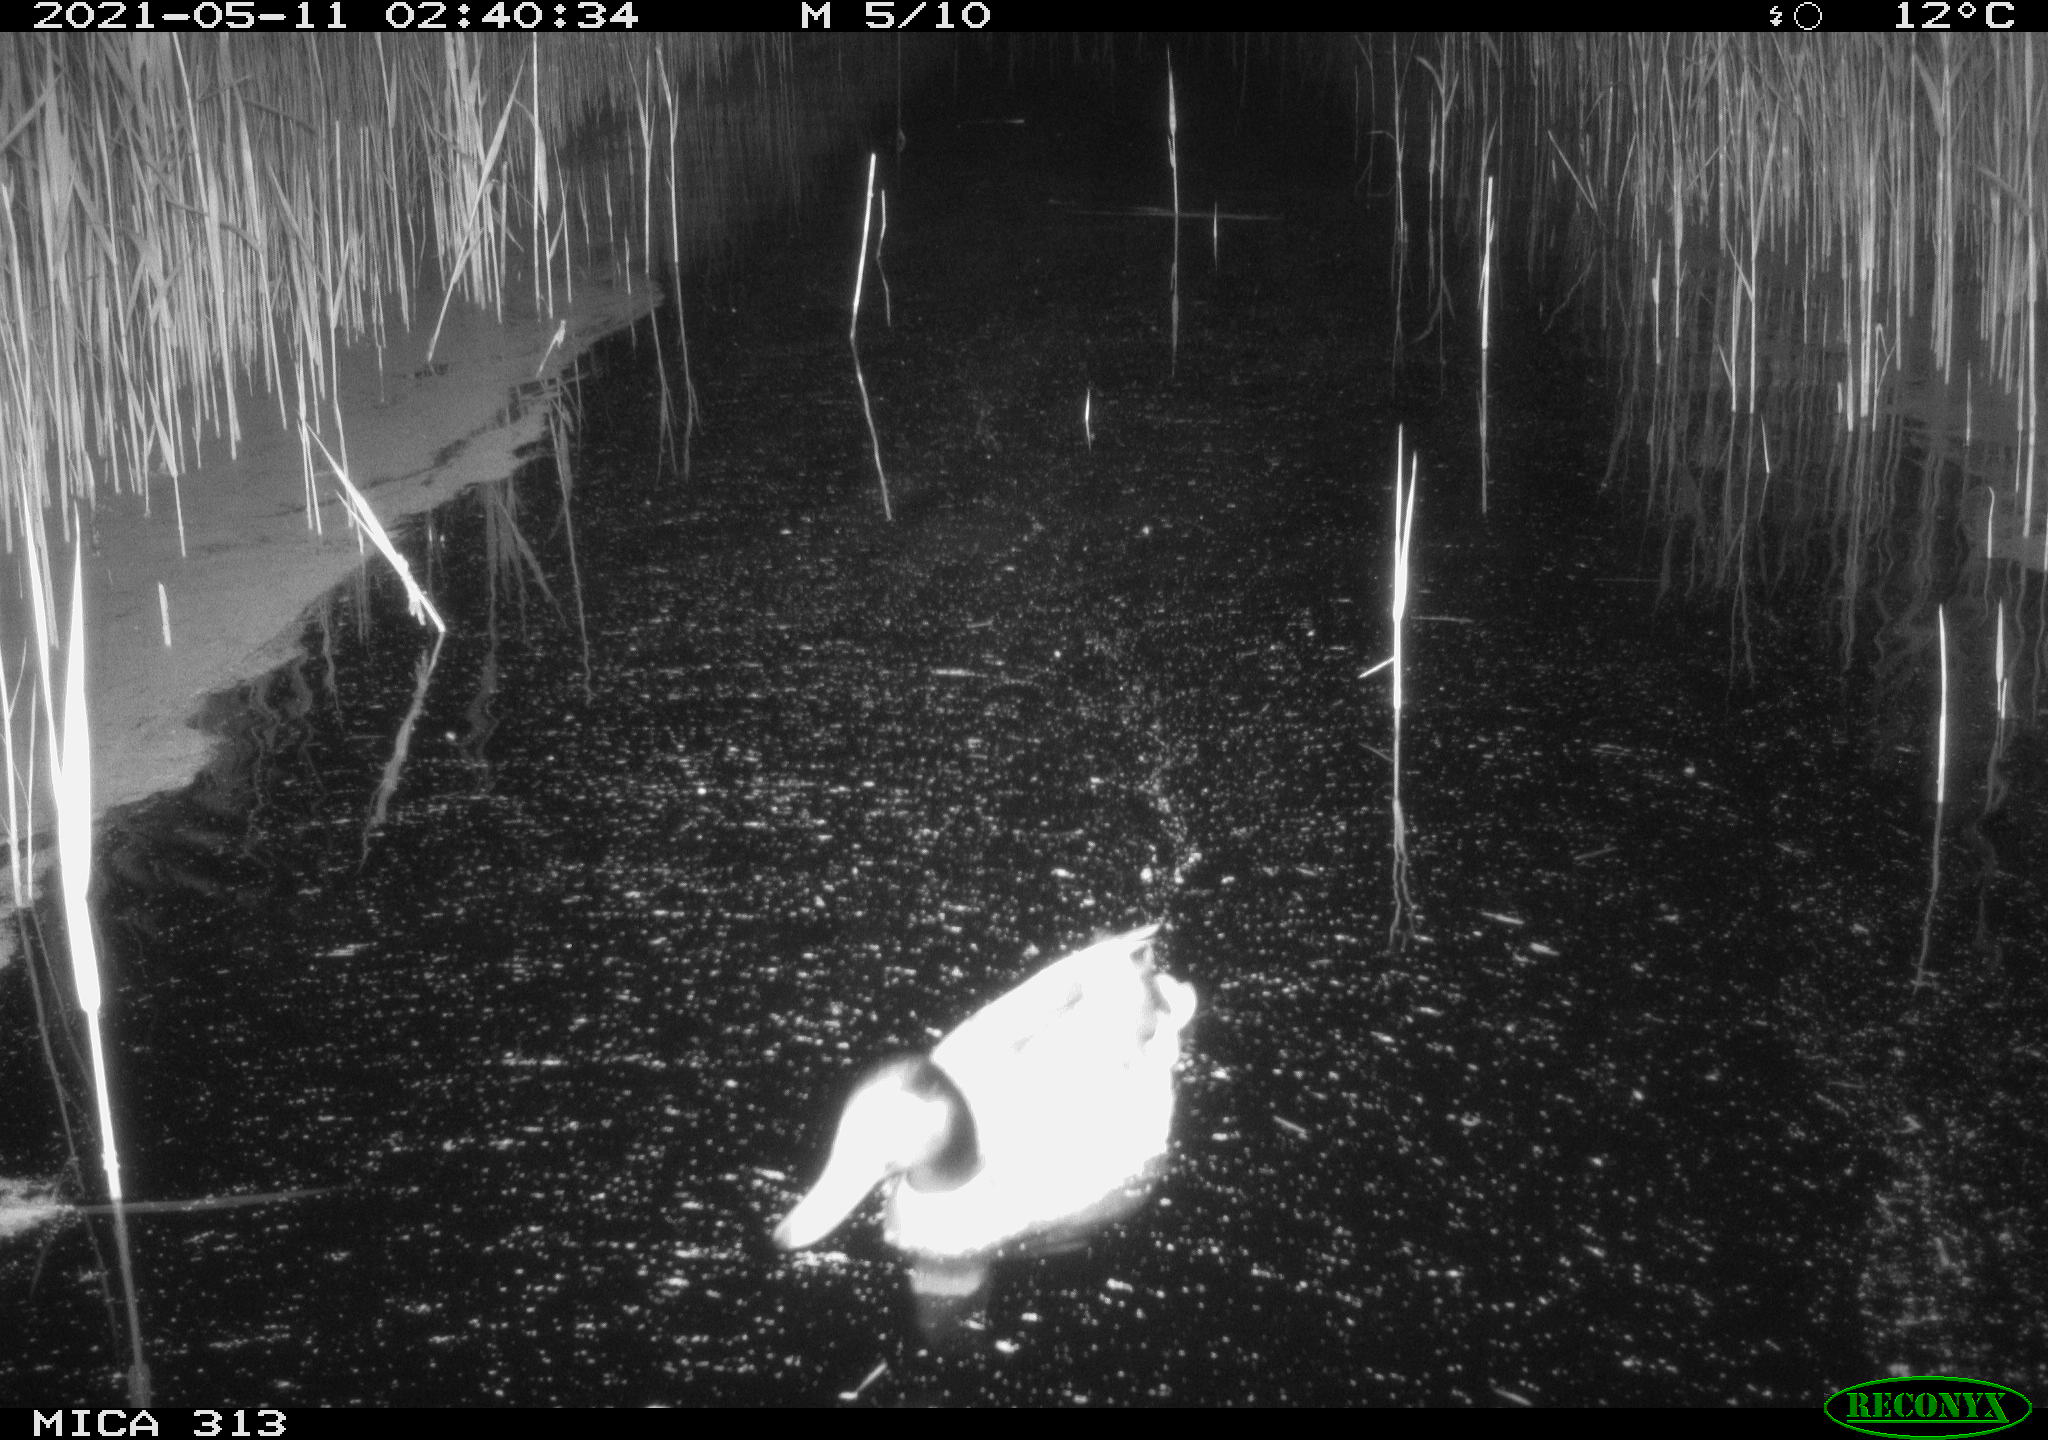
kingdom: Animalia
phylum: Chordata
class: Aves
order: Anseriformes
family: Anatidae
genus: Anas
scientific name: Anas platyrhynchos
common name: Mallard
